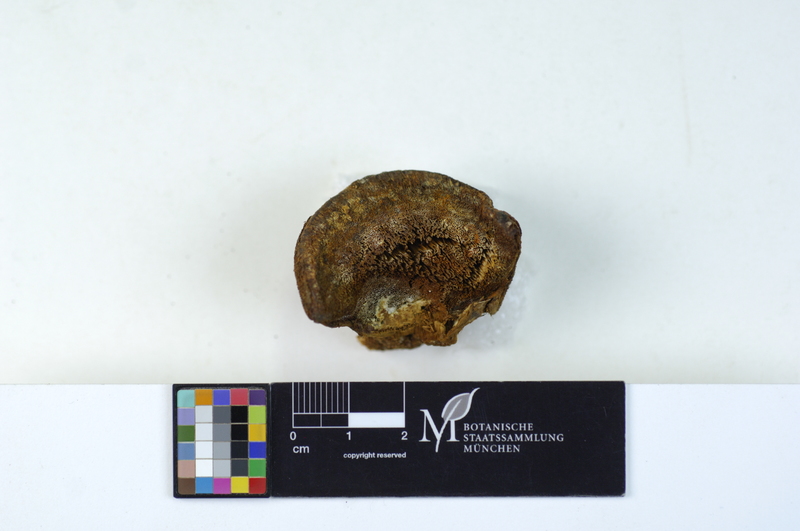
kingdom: Fungi
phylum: Basidiomycota
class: Agaricomycetes
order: Hymenochaetales
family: Hymenochaetaceae
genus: Inocutis
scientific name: Inocutis rheades
